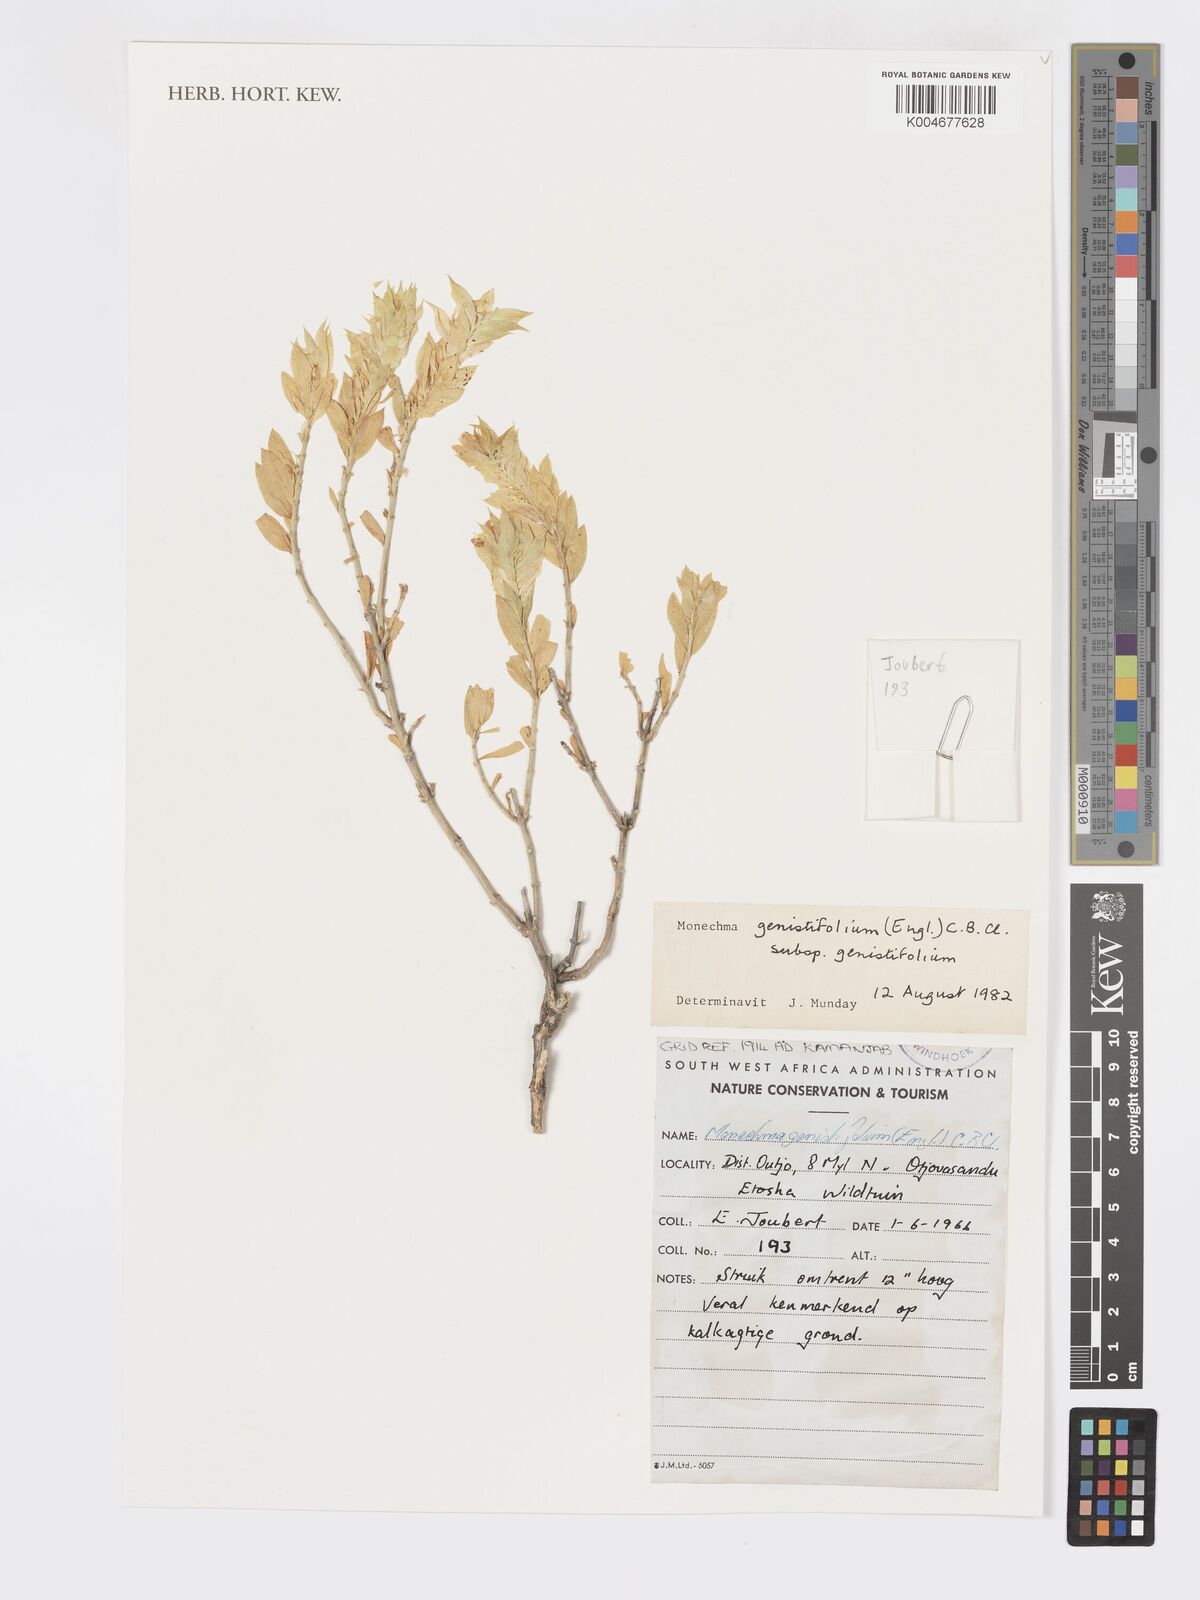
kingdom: Plantae
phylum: Tracheophyta
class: Magnoliopsida
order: Lamiales
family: Acanthaceae
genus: Pogonospermum
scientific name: Pogonospermum
